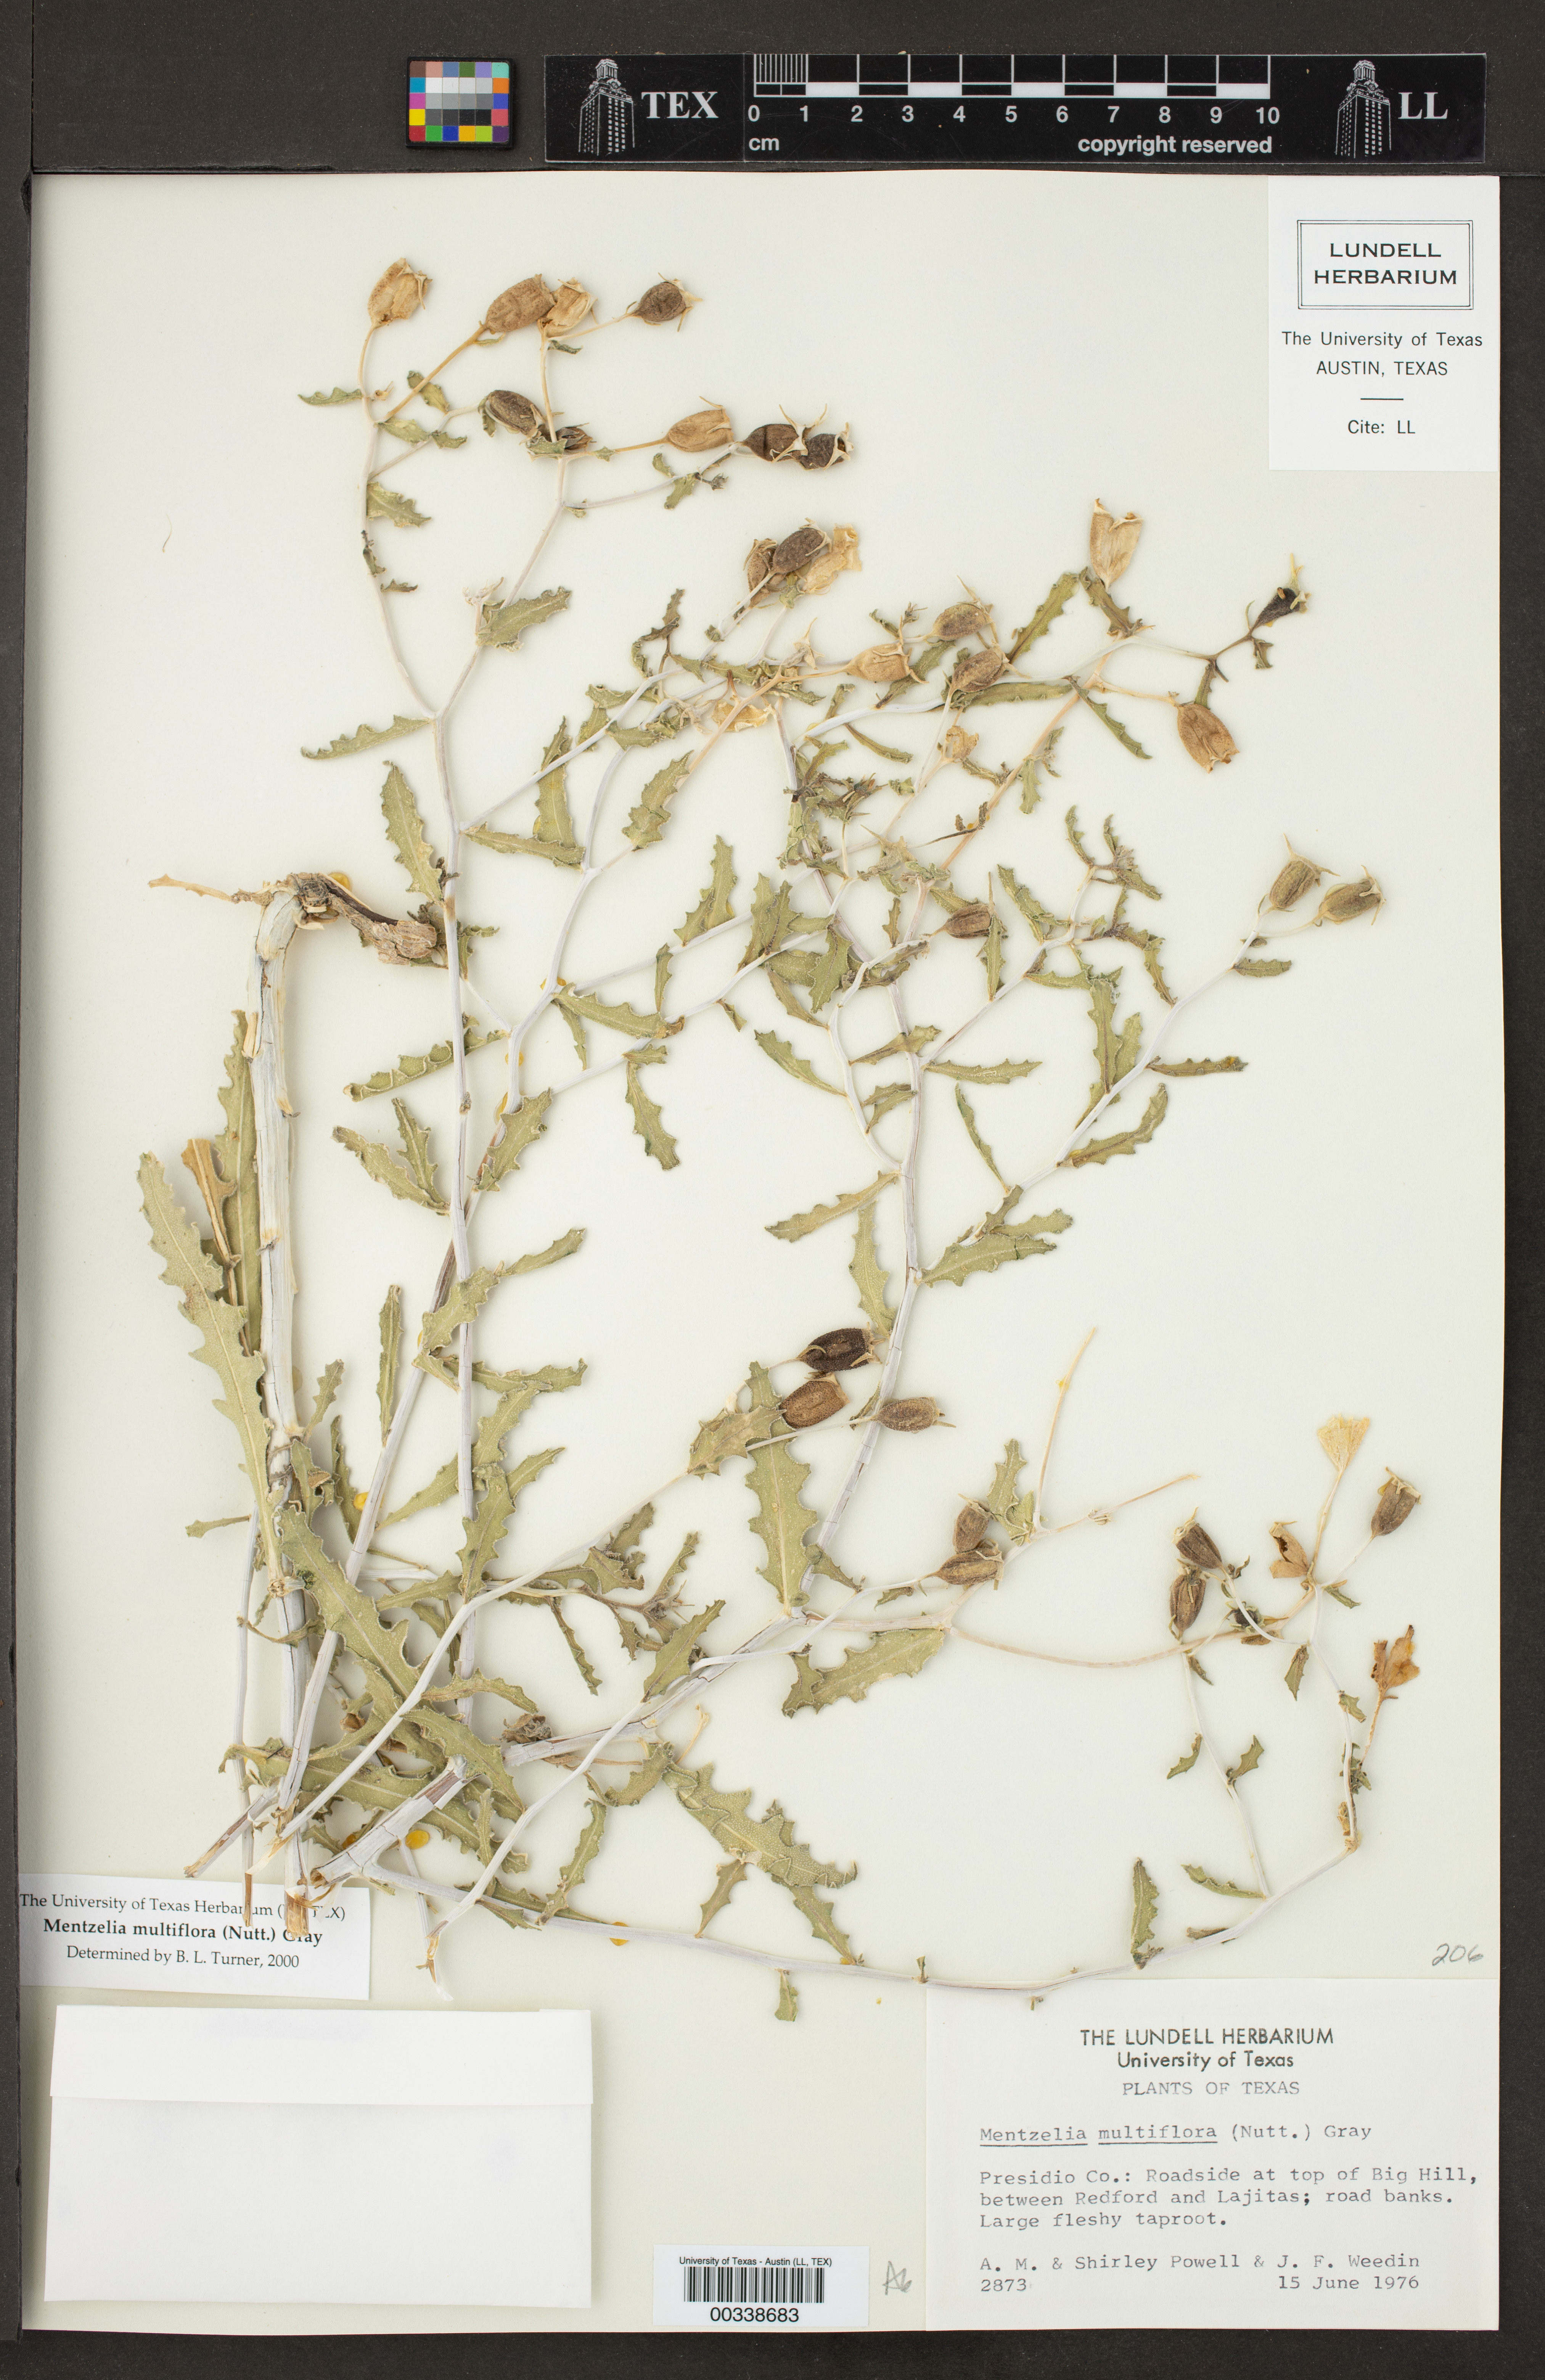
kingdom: Plantae
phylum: Tracheophyta
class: Magnoliopsida
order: Cornales
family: Loasaceae
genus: Mentzelia
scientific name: Mentzelia multiflora
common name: Adonis blazingstar
